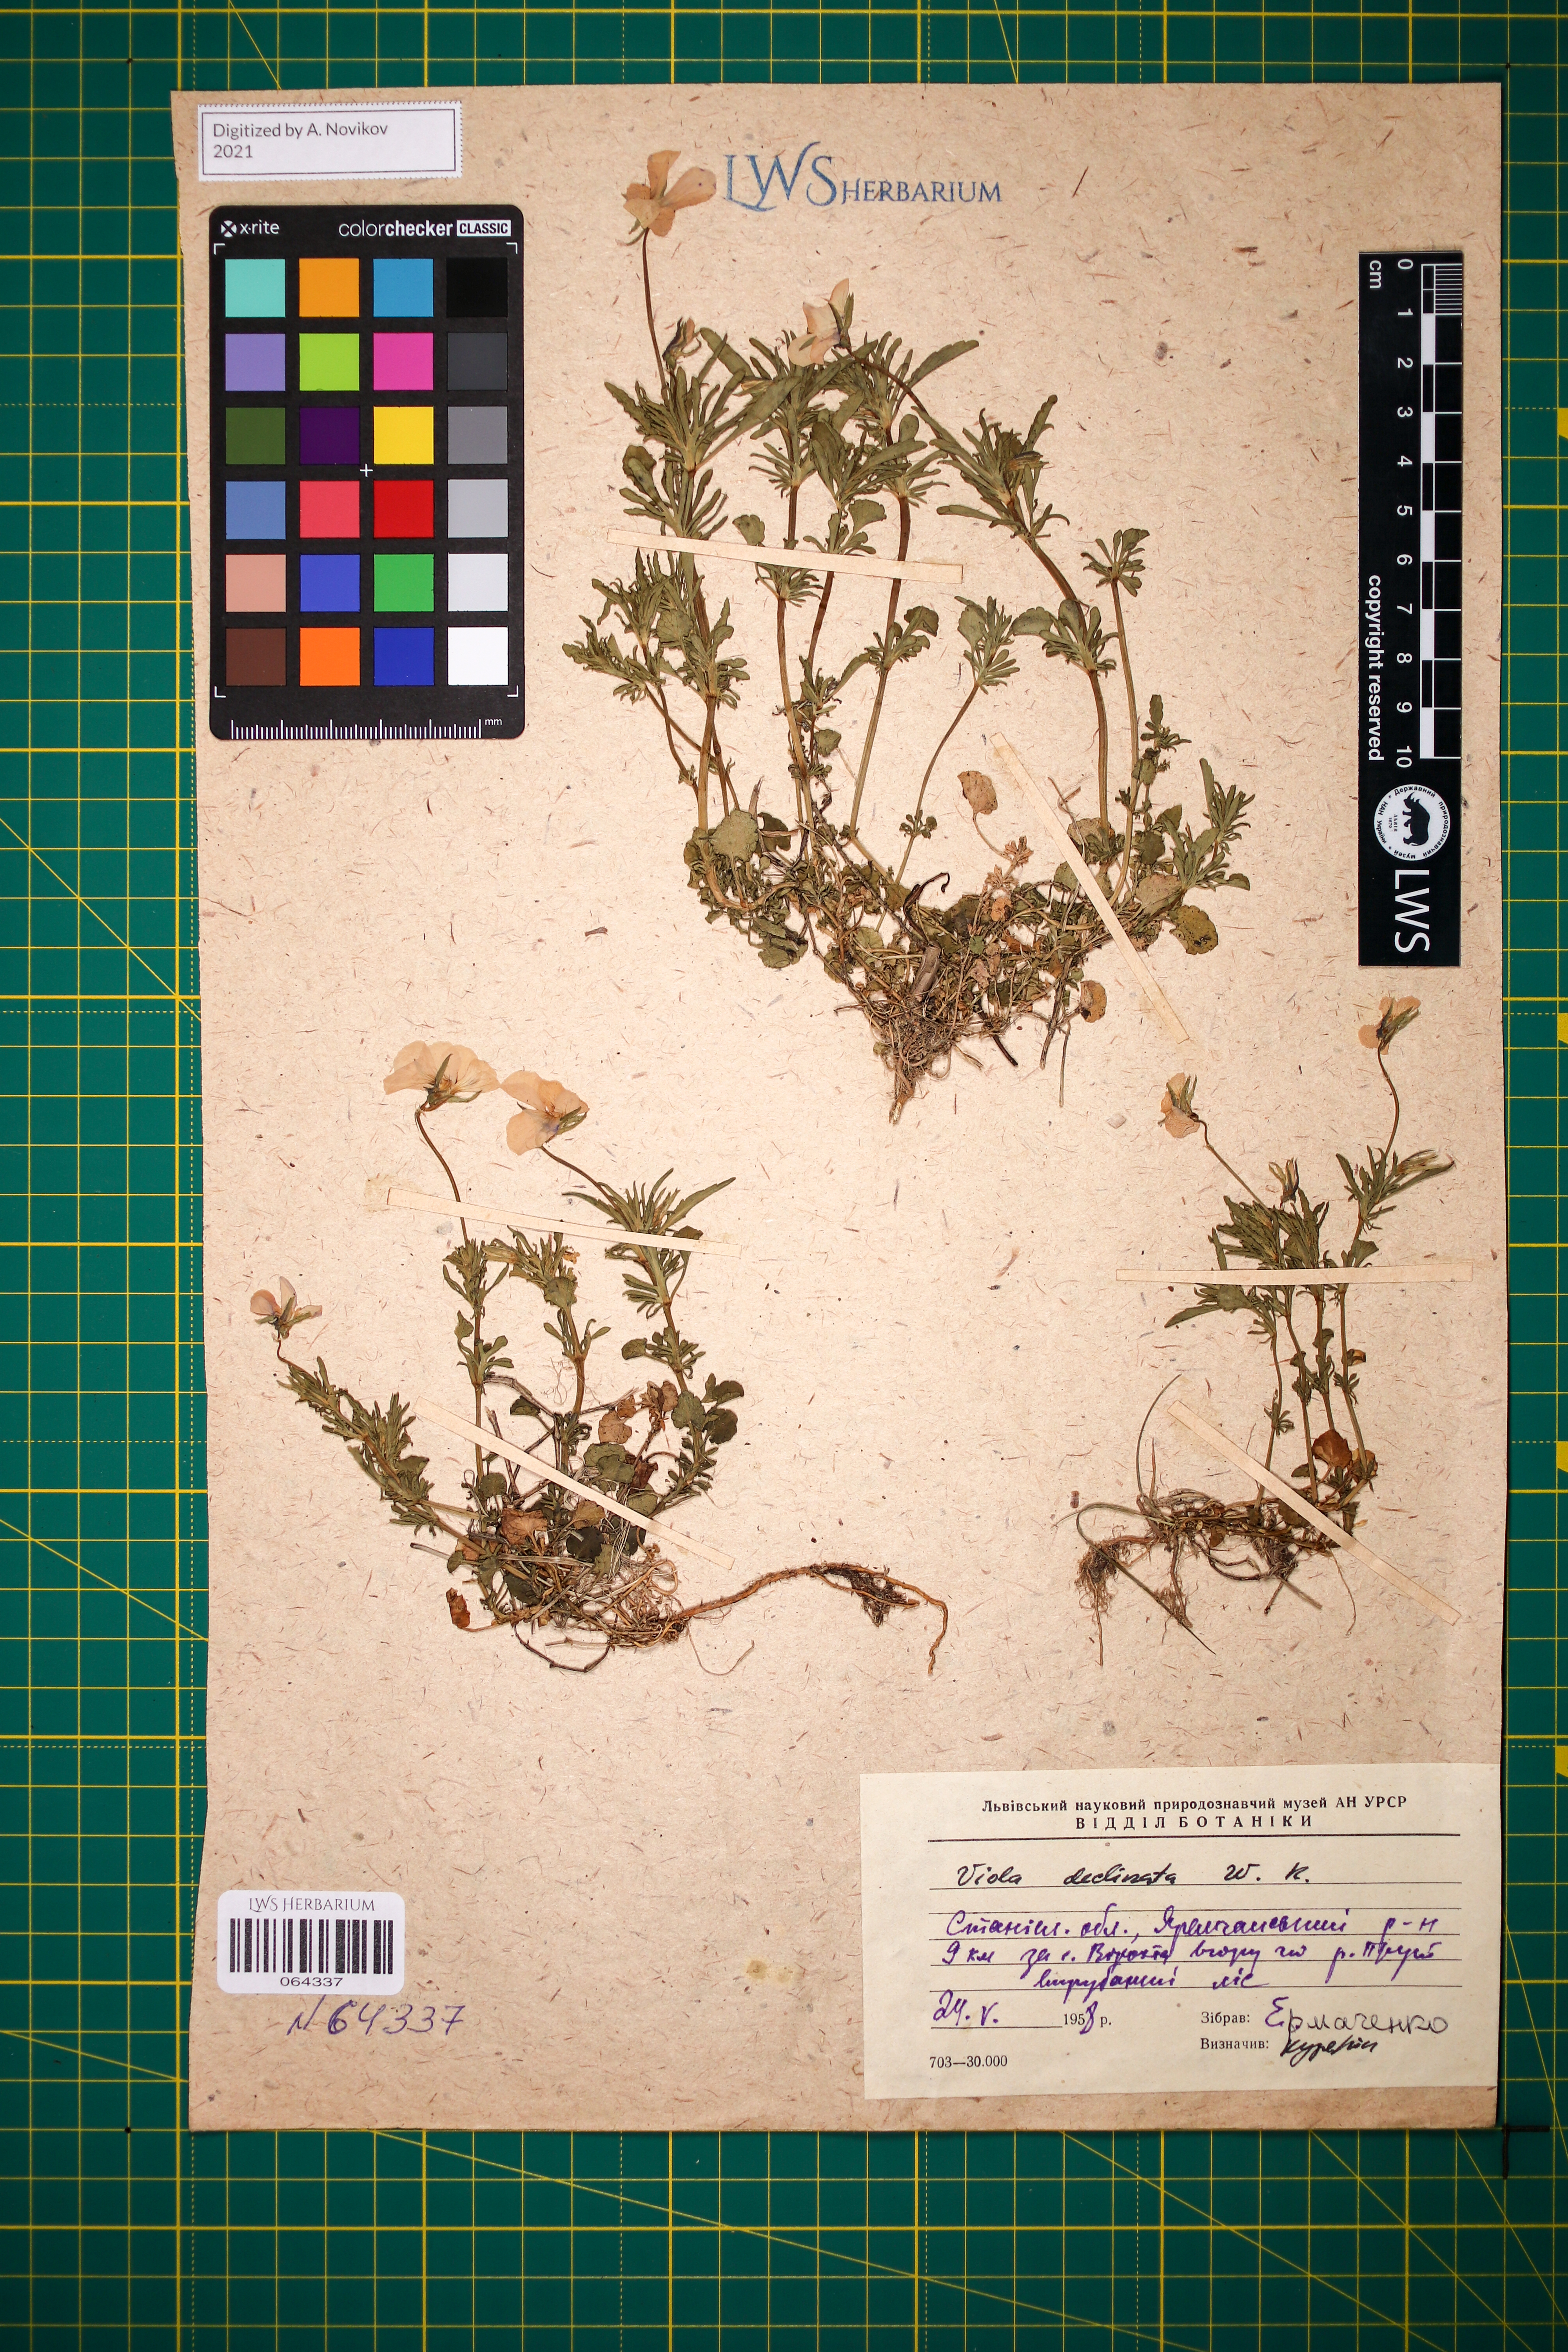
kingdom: Plantae
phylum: Tracheophyta
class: Magnoliopsida
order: Malpighiales
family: Violaceae
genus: Viola
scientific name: Viola declinata
